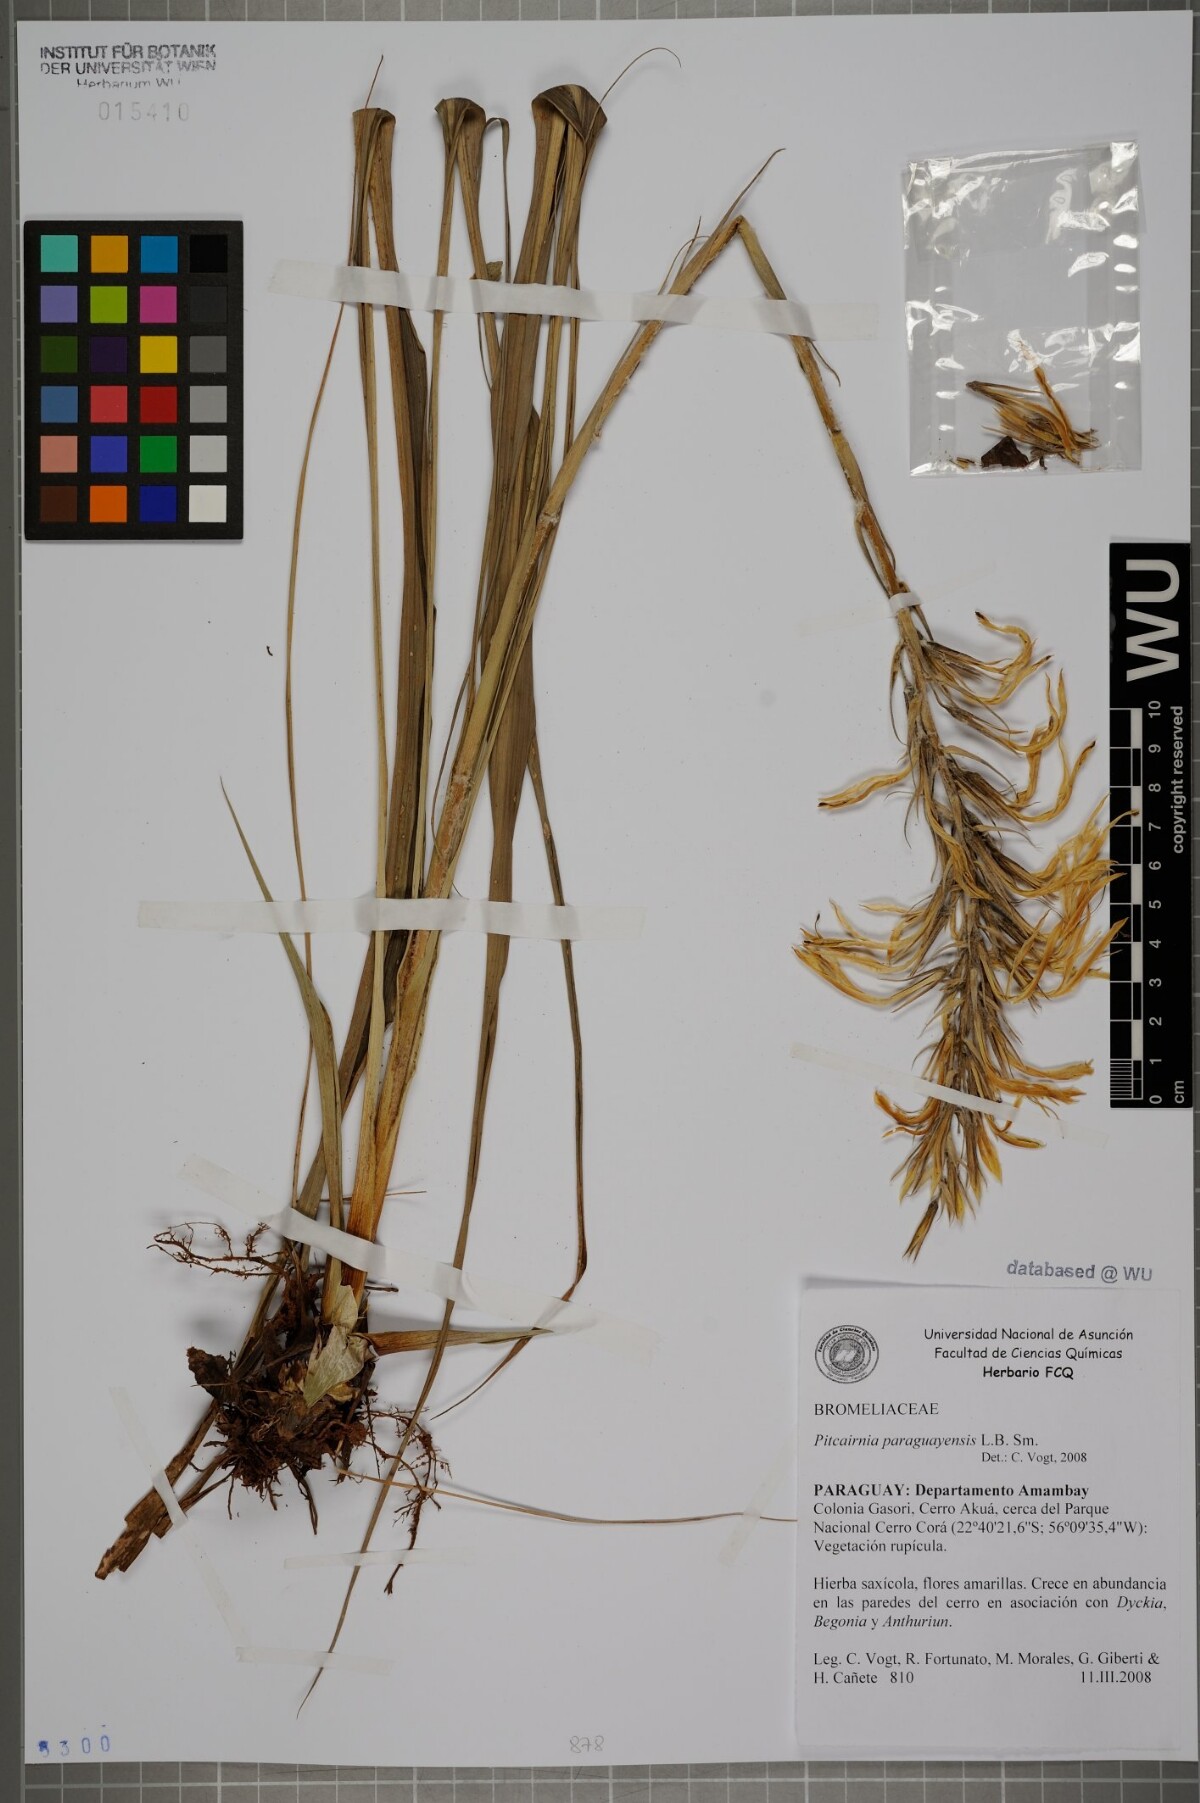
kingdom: Plantae
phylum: Tracheophyta
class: Liliopsida
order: Poales
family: Bromeliaceae
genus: Pitcairnia
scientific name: Pitcairnia paraguayensis
